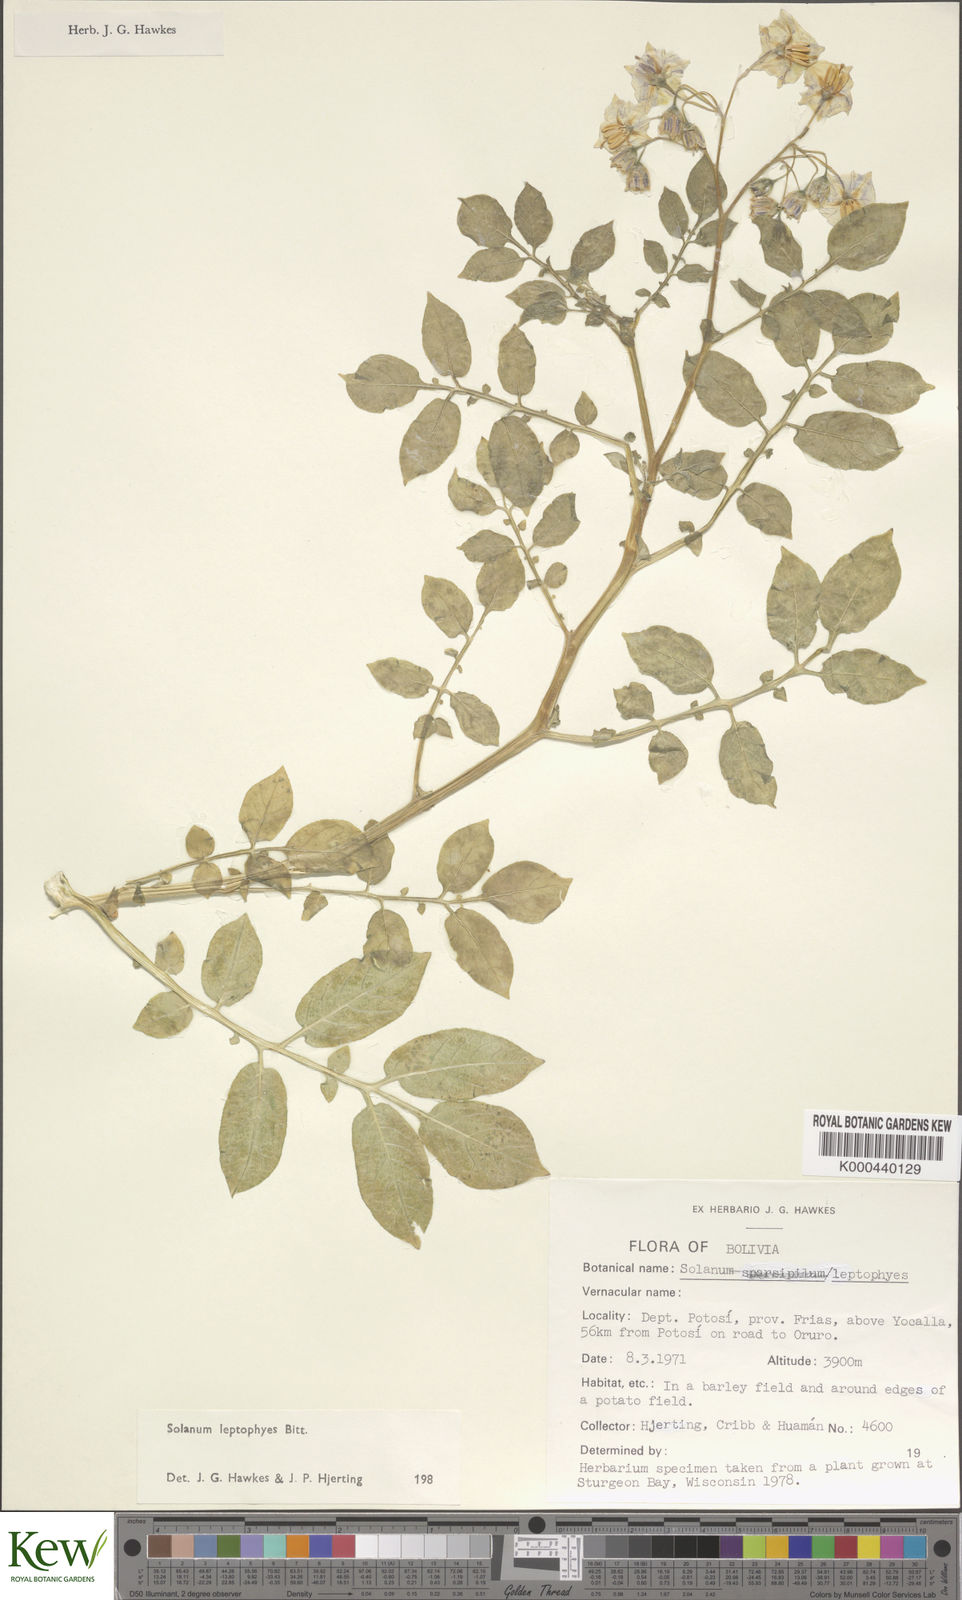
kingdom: Plantae
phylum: Tracheophyta
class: Magnoliopsida
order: Solanales
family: Solanaceae
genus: Solanum
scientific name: Solanum brevicaule
